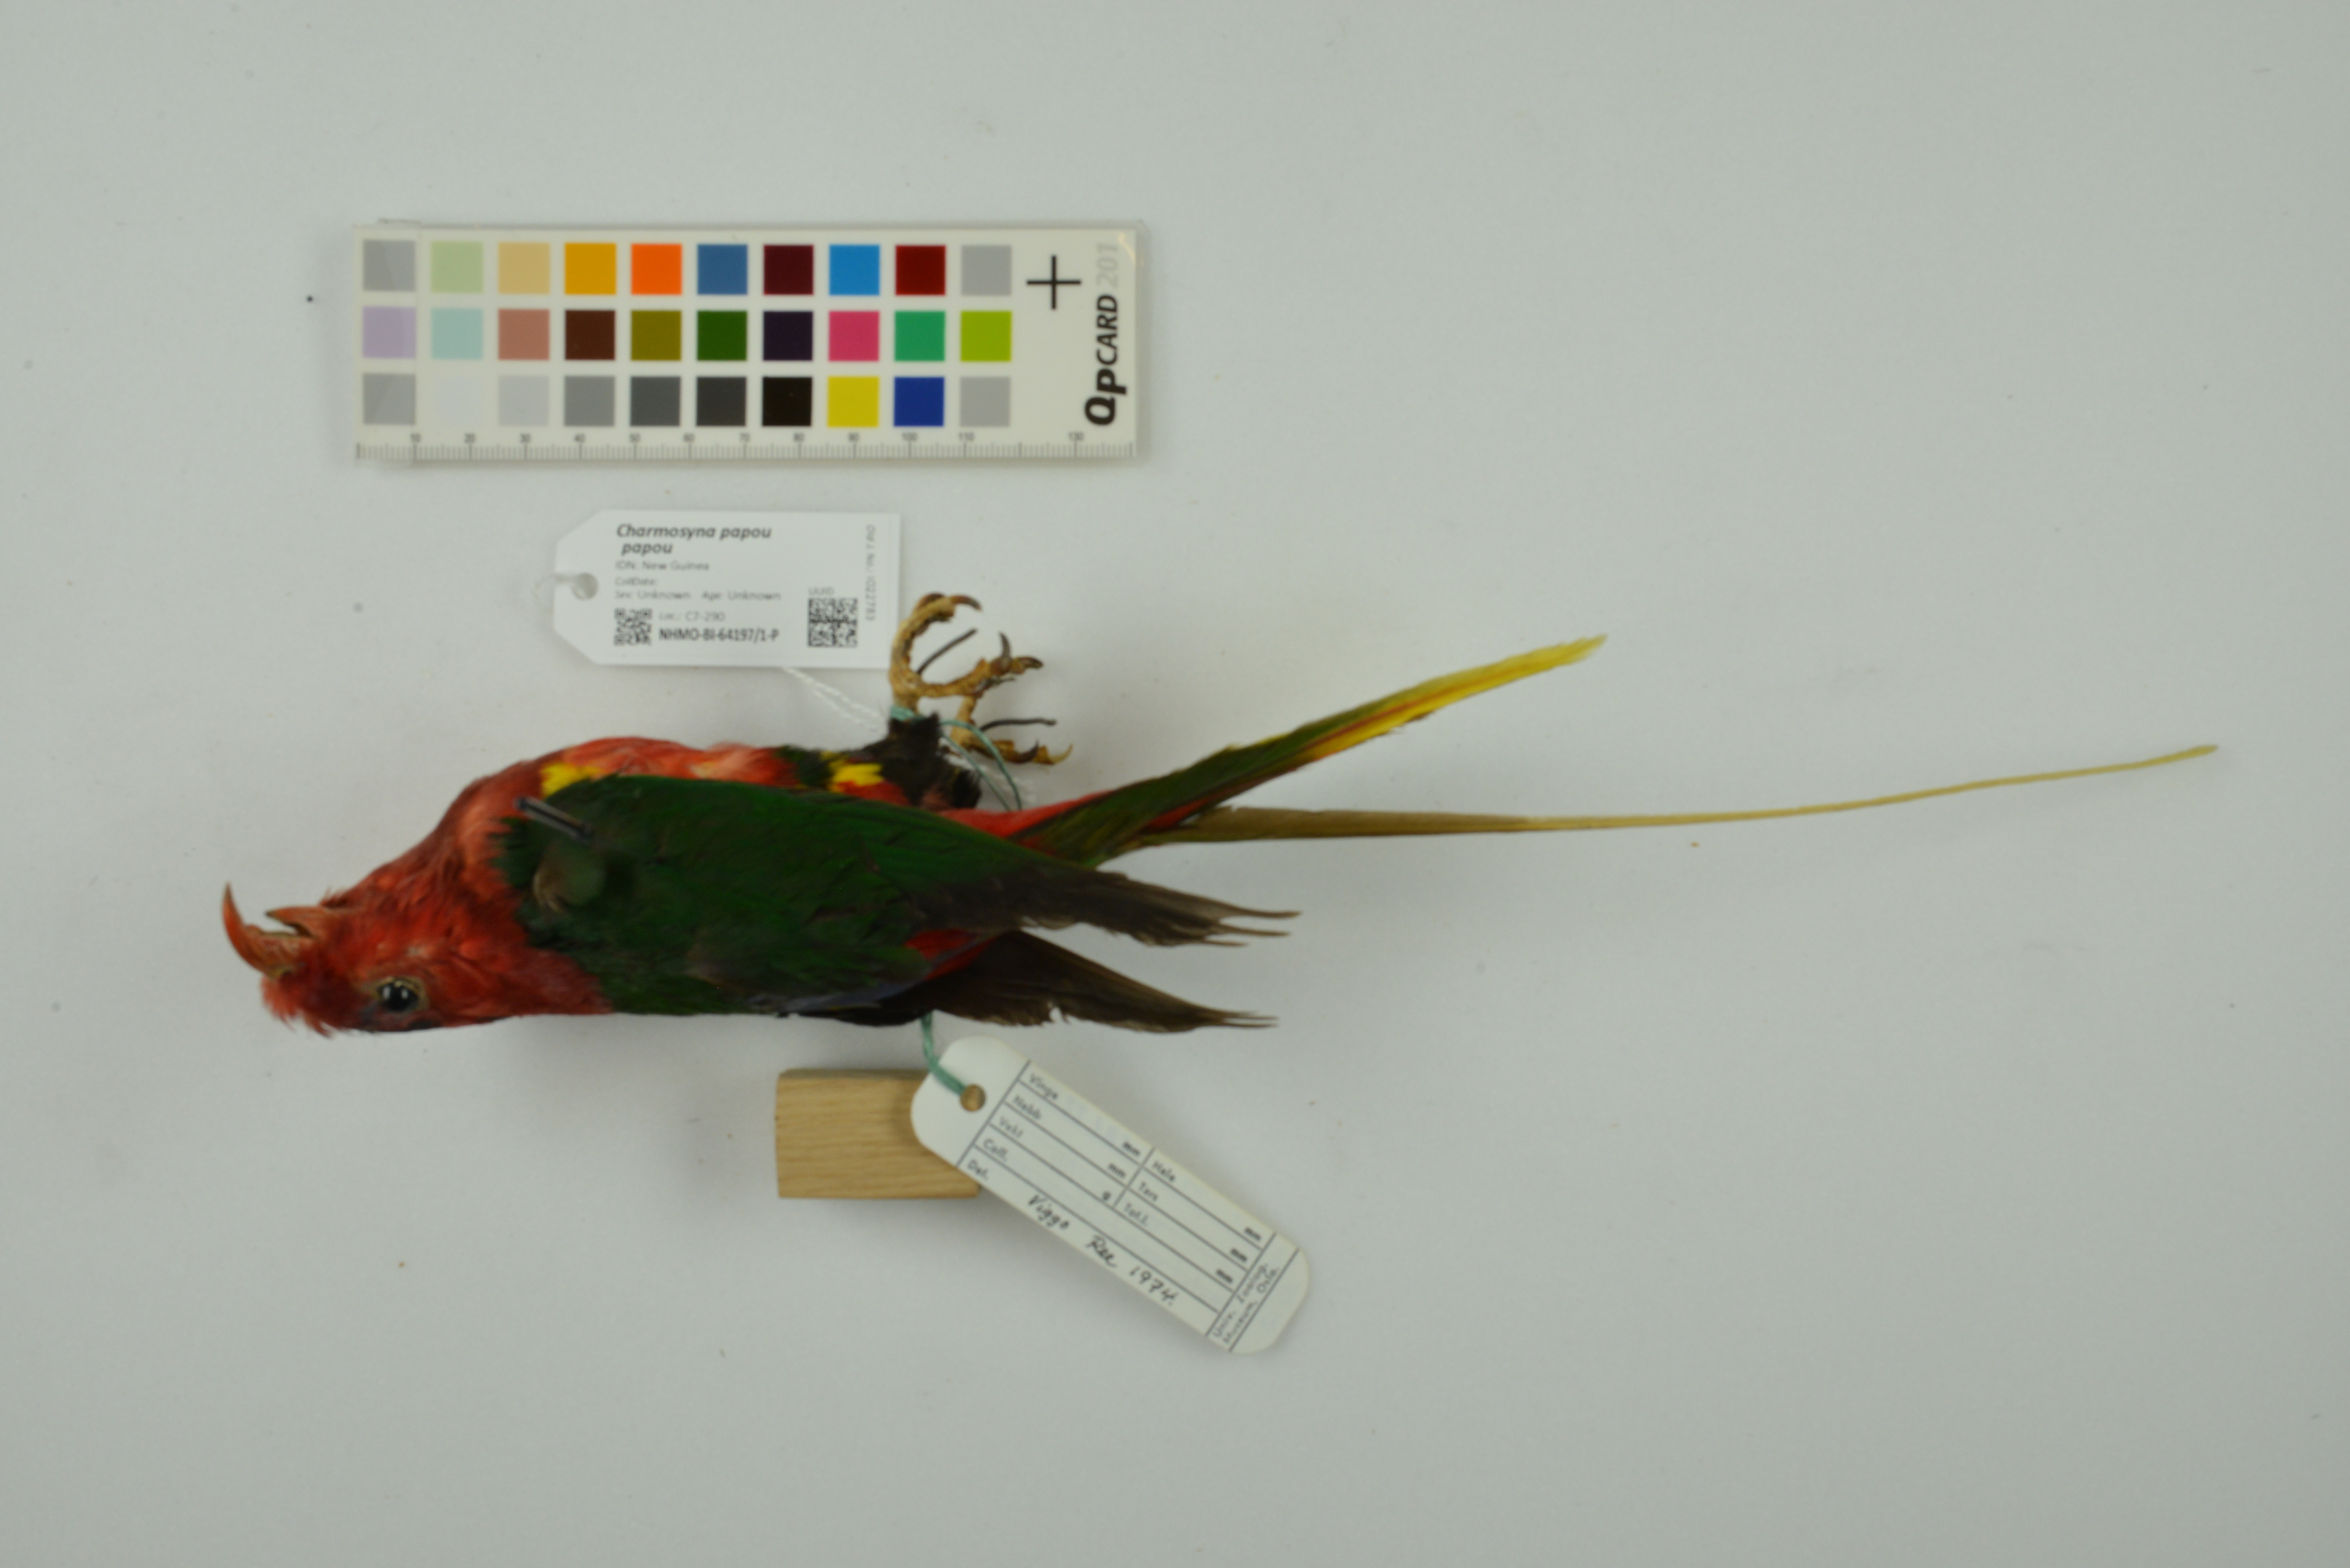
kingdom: Animalia
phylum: Chordata
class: Aves
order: Psittaciformes
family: Psittacidae
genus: Charmosyna
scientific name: Charmosyna papou
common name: Papuan lorikeet
